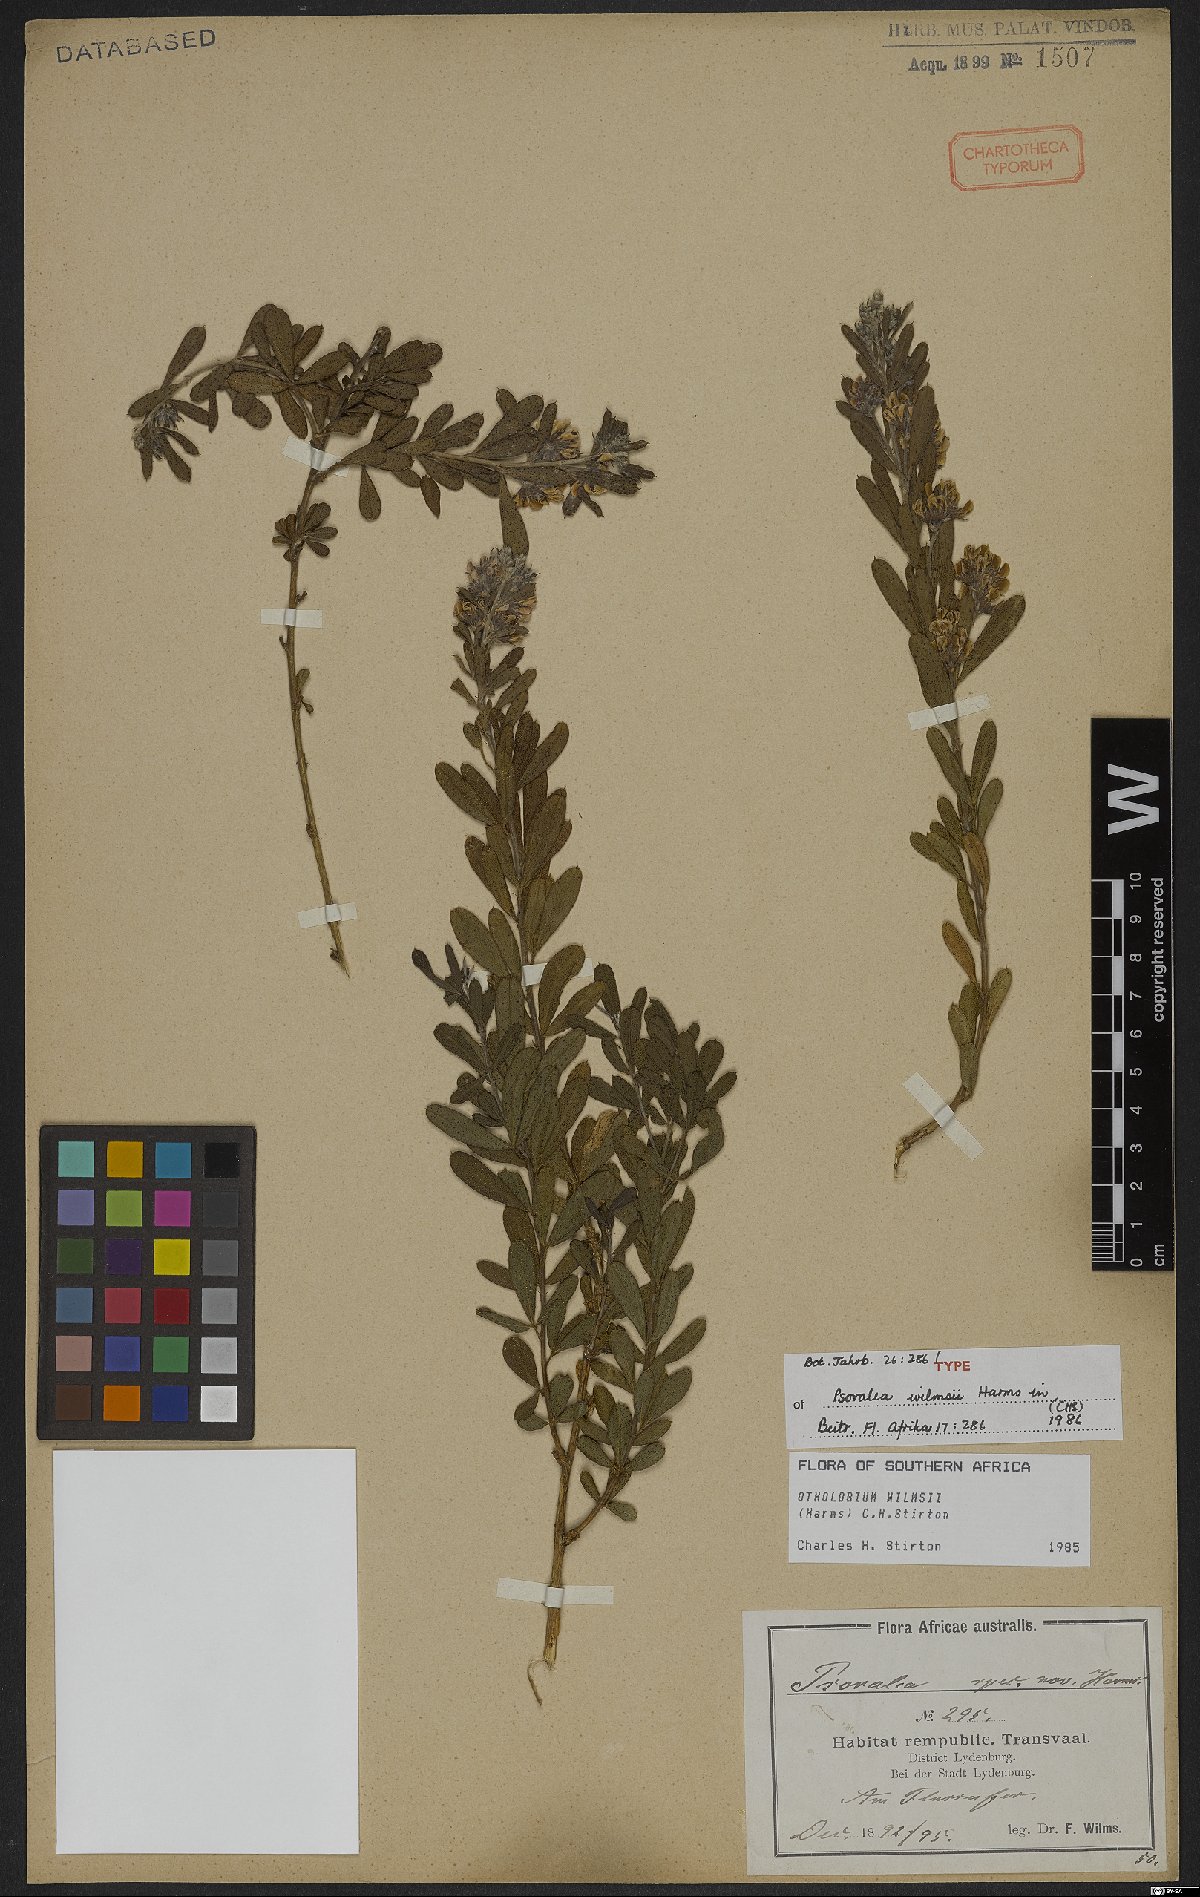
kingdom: Plantae
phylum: Tracheophyta
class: Magnoliopsida
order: Fabales
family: Fabaceae
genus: Psoralea
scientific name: Psoralea wilmsii
